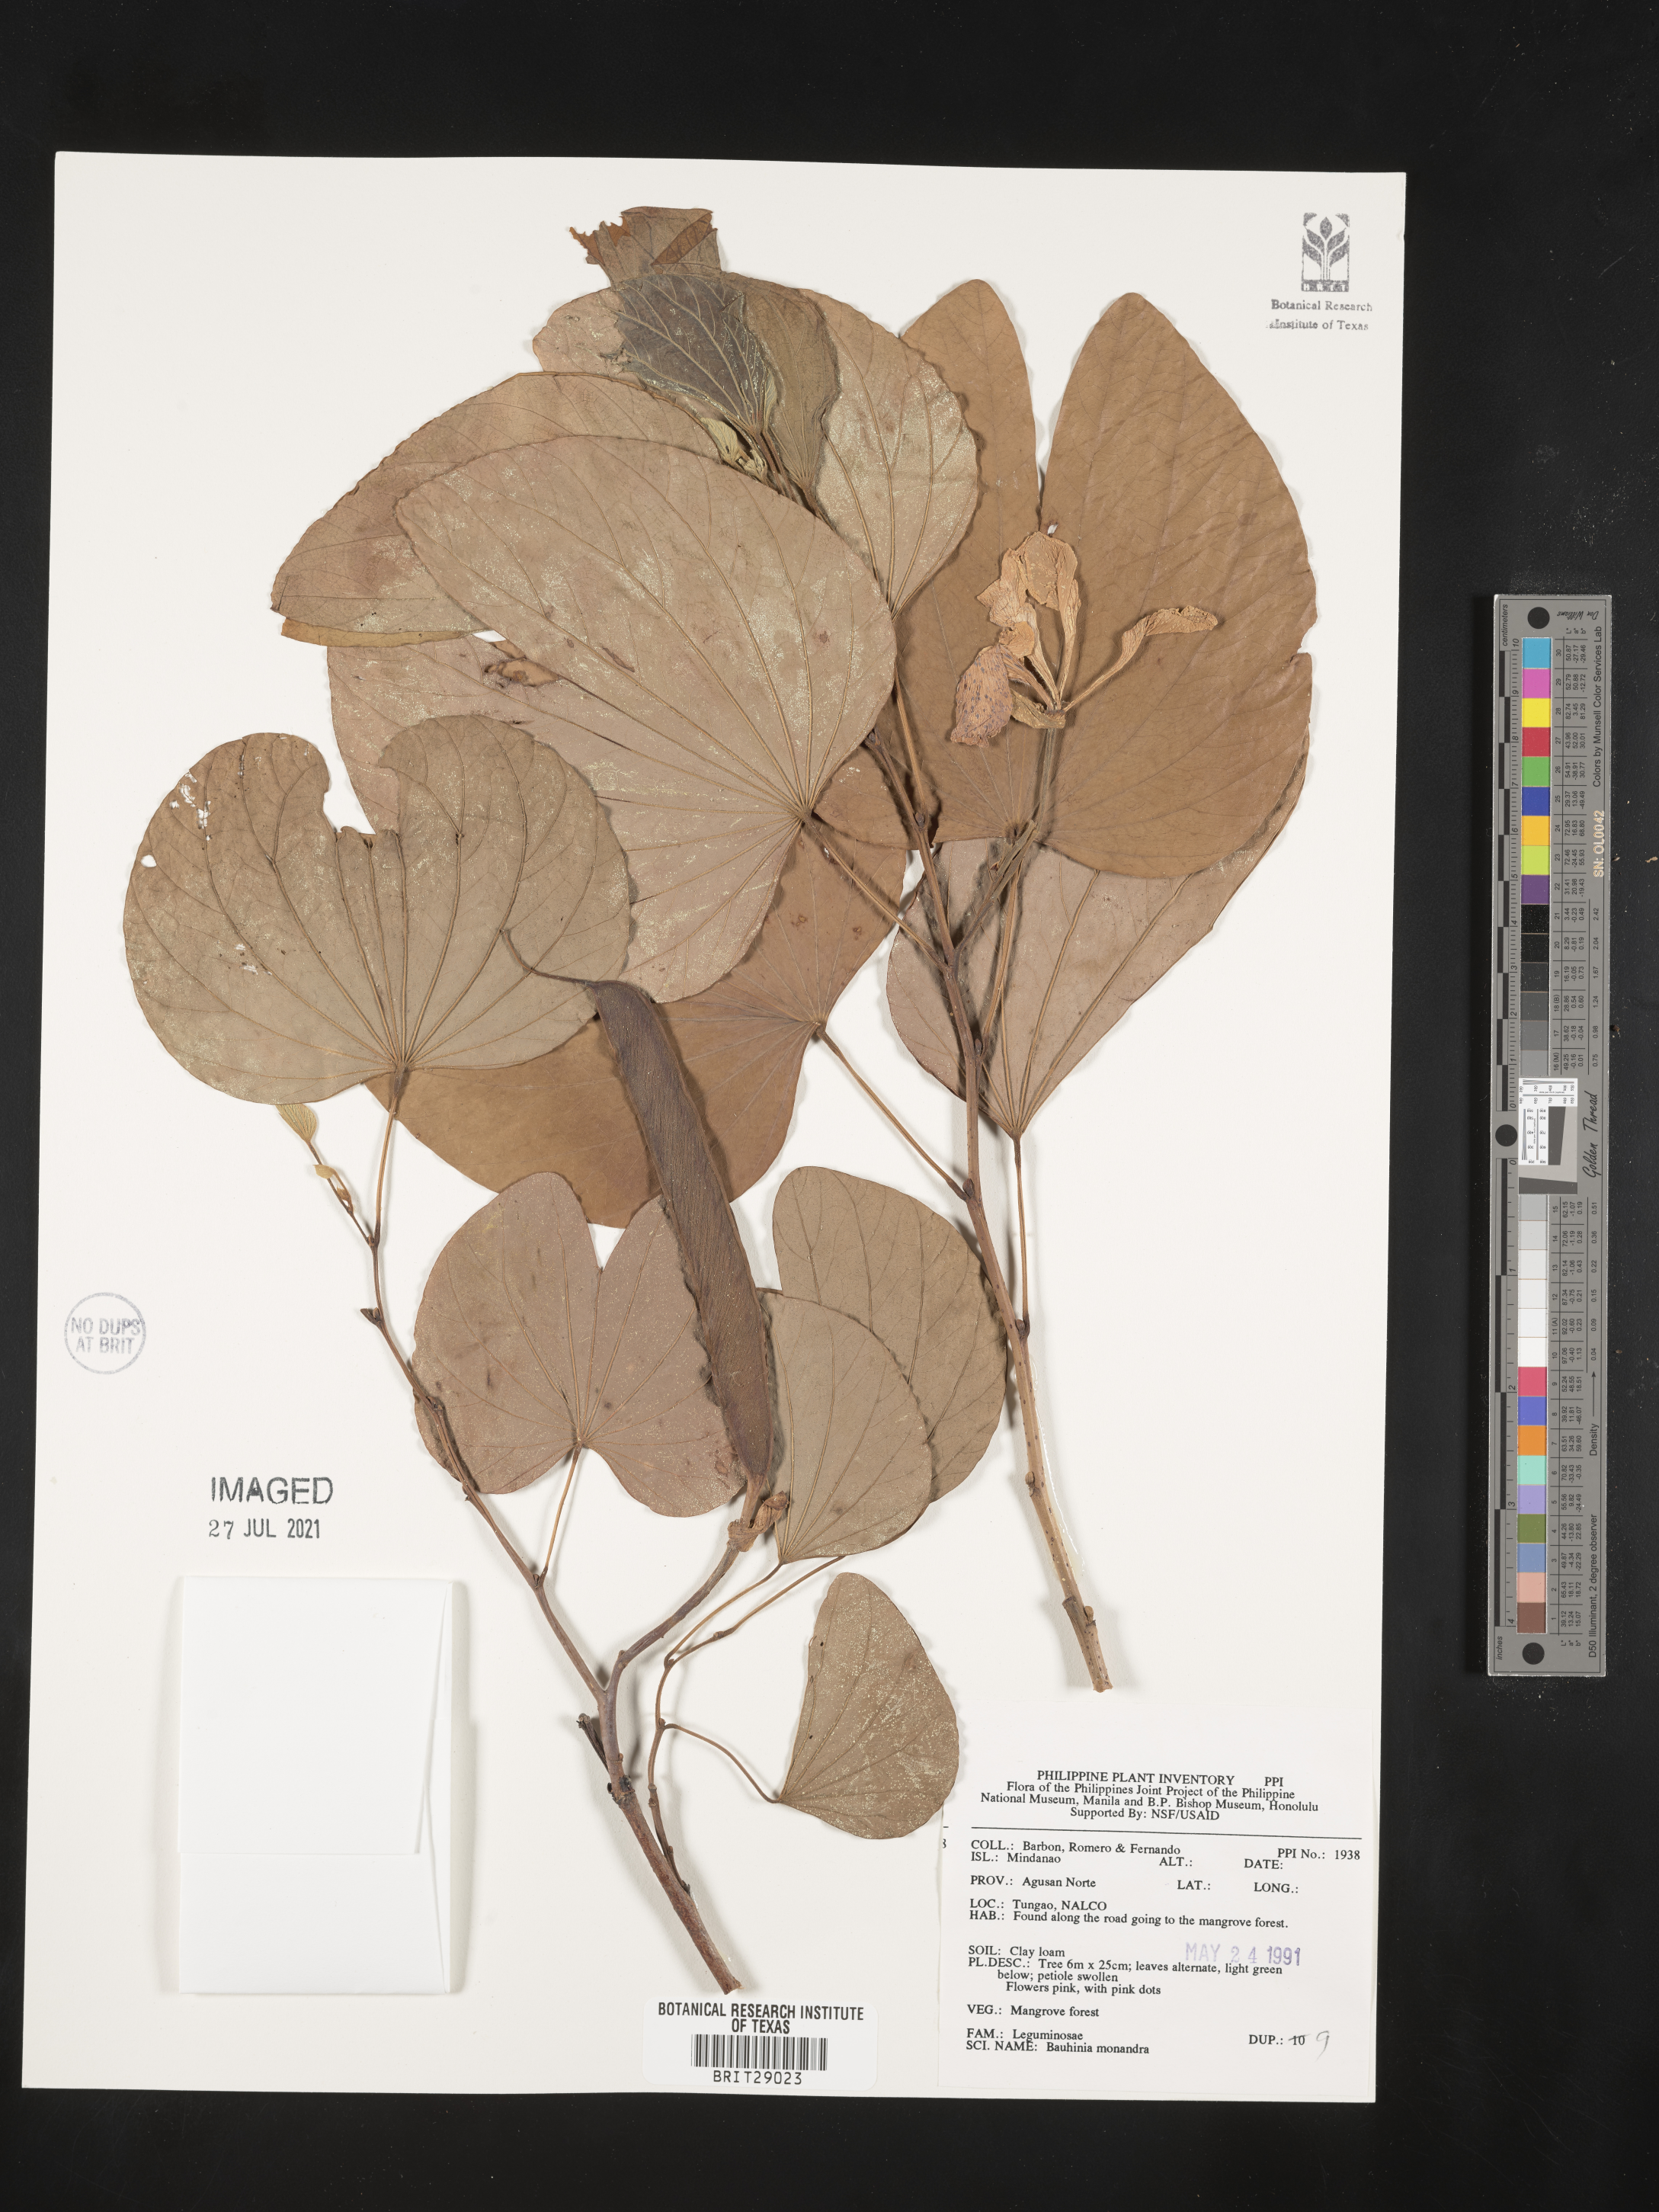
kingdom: Plantae
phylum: Tracheophyta
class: Magnoliopsida
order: Fabales
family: Fabaceae
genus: Bauhinia
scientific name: Bauhinia monandra
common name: Napoleon's plume
